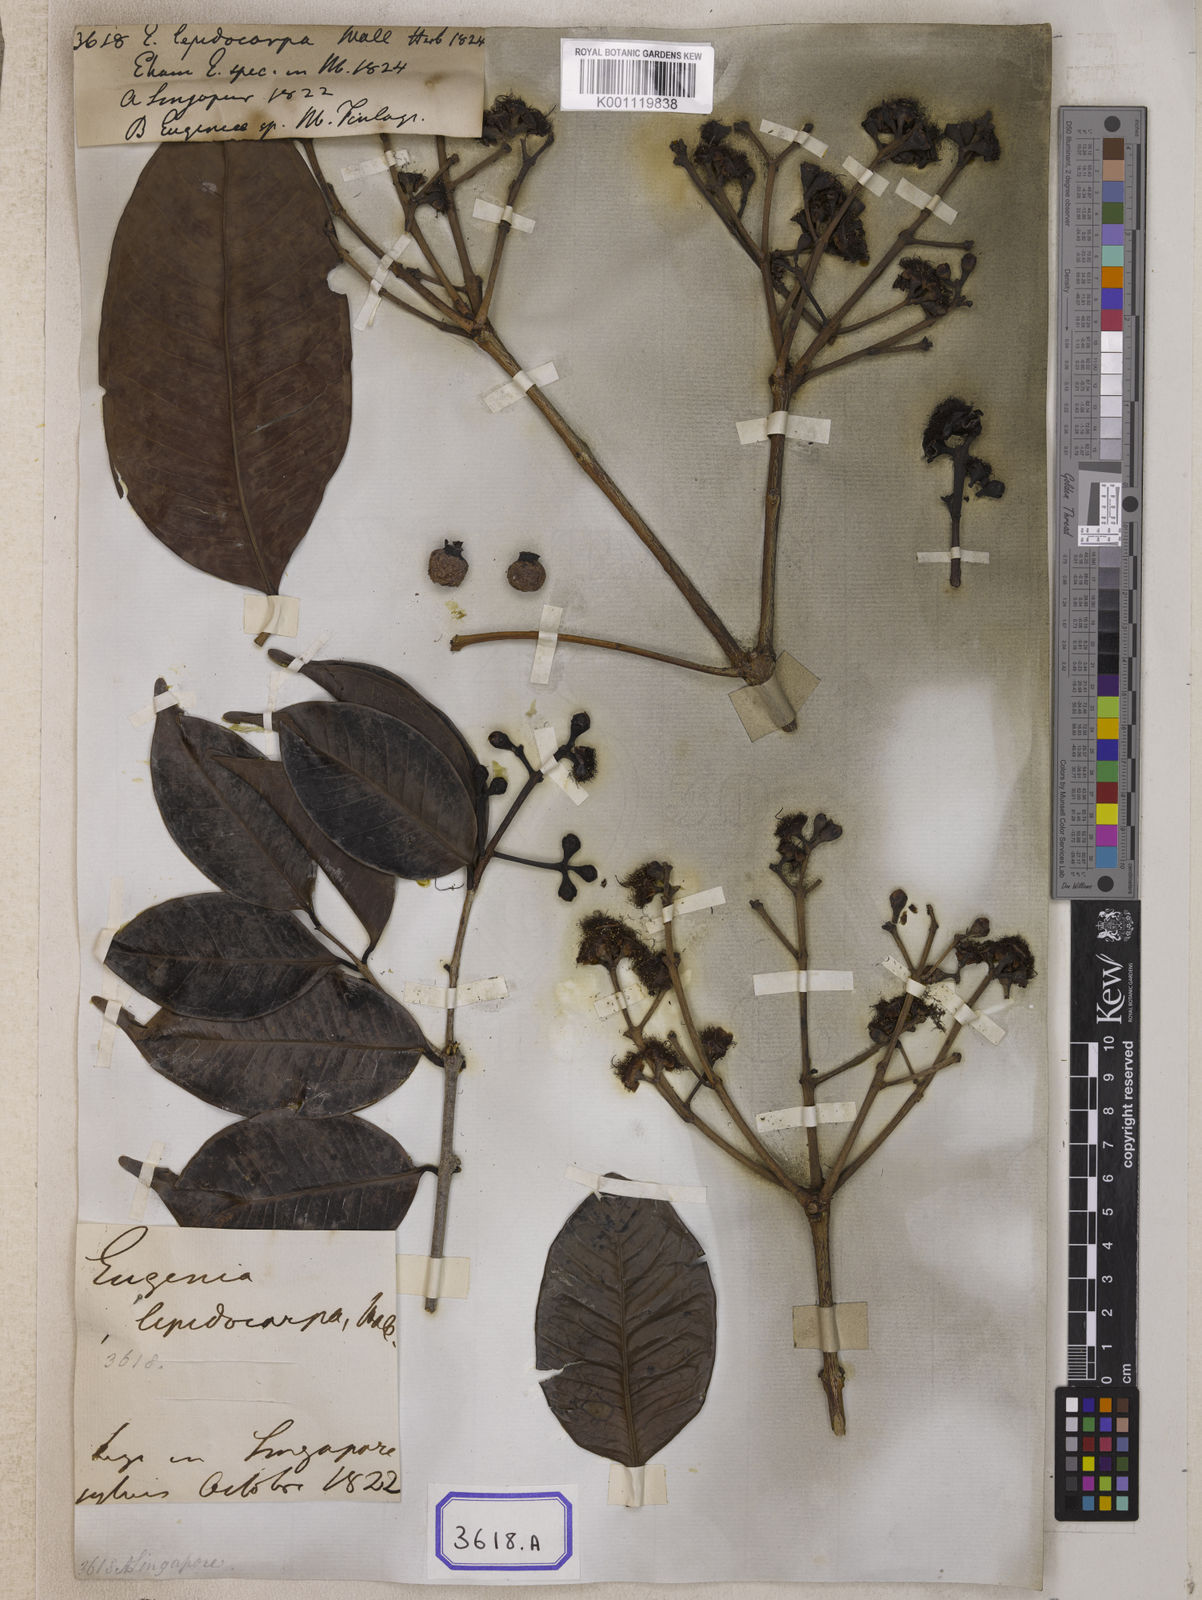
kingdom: Plantae
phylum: Tracheophyta
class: Magnoliopsida
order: Myrtales
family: Myrtaceae
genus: Eugenia
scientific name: Eugenia
